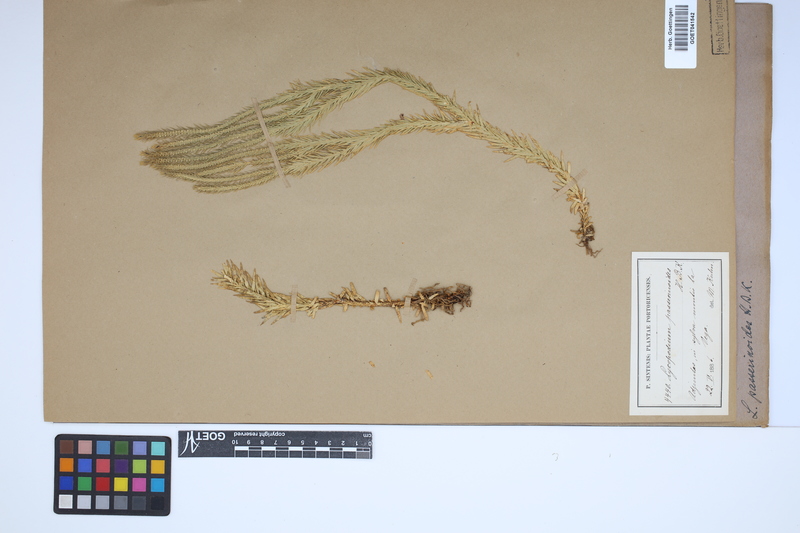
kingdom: Plantae
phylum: Tracheophyta
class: Lycopodiopsida
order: Lycopodiales
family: Lycopodiaceae
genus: Phlegmariurus
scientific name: Phlegmariurus taxifolius
